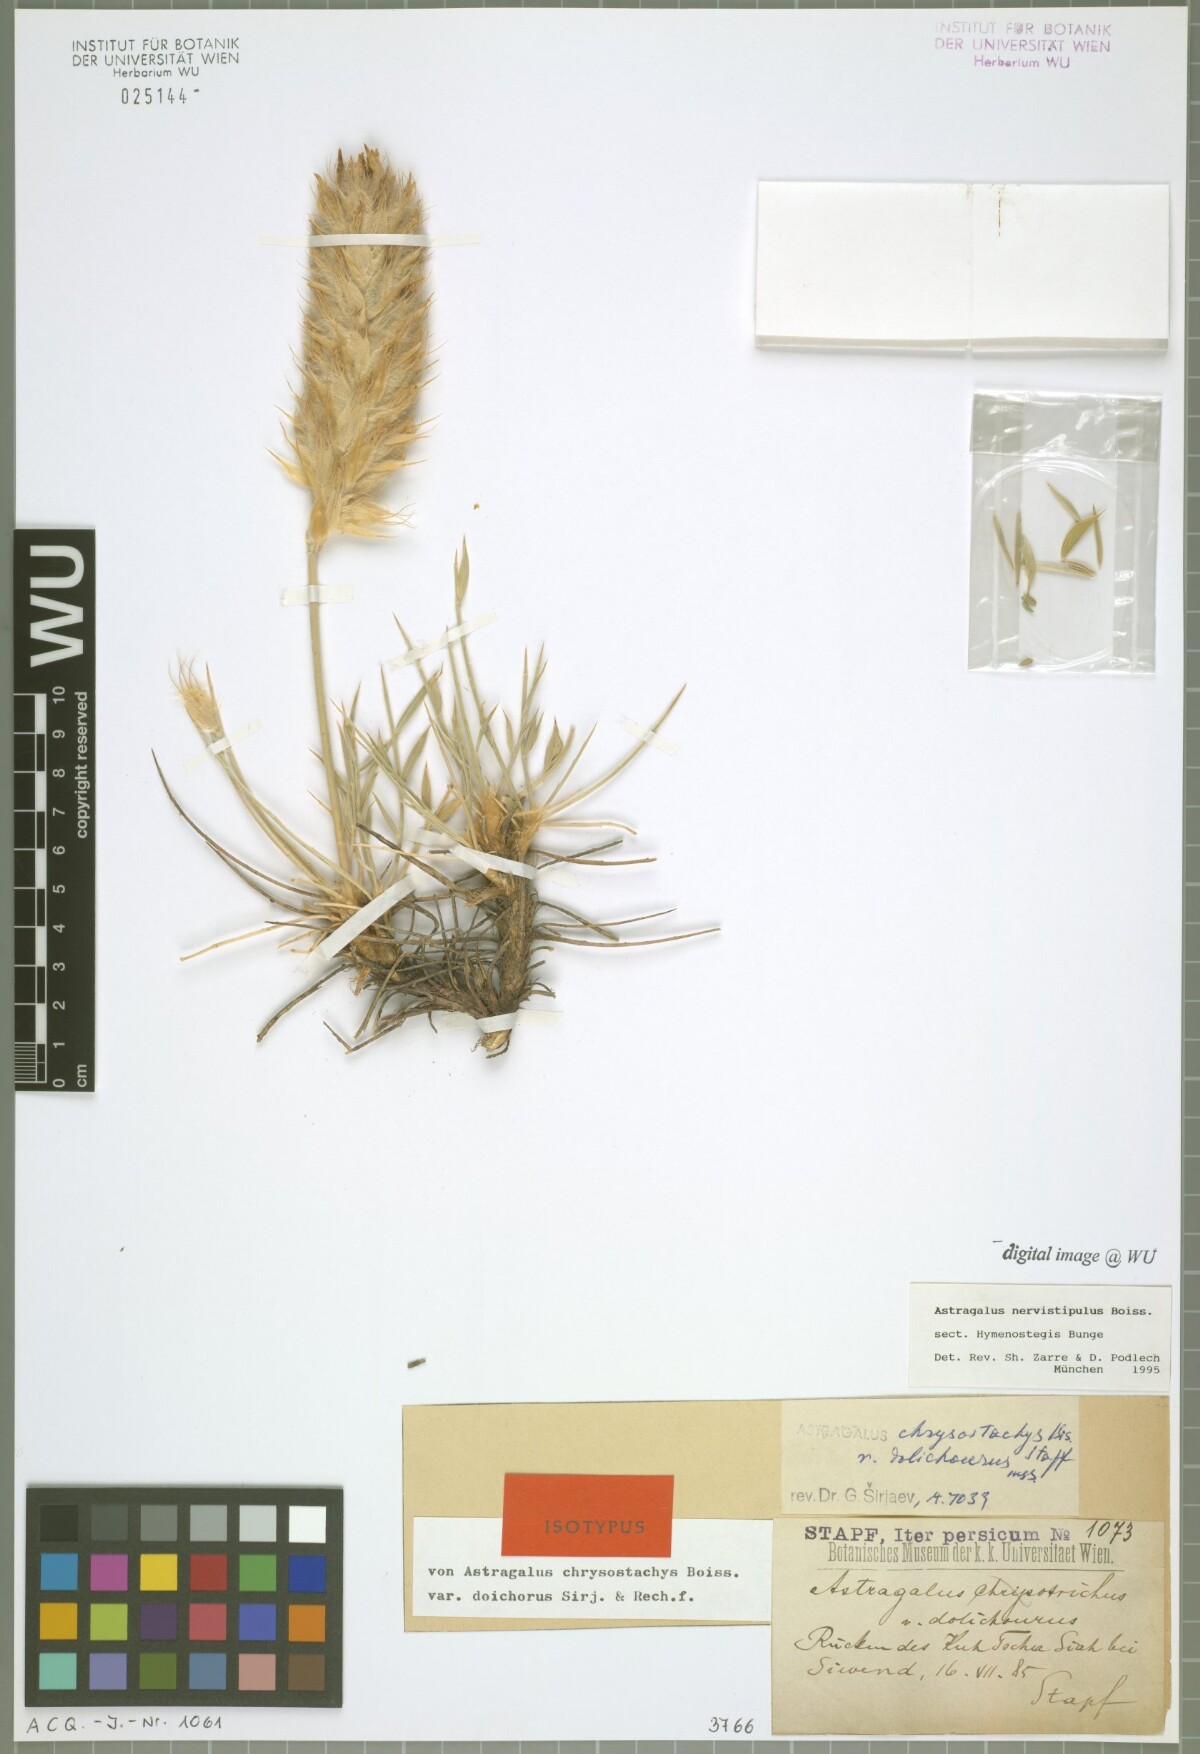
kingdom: Plantae
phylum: Tracheophyta
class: Magnoliopsida
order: Fabales
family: Fabaceae
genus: Astragalus
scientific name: Astragalus nervistipulus
